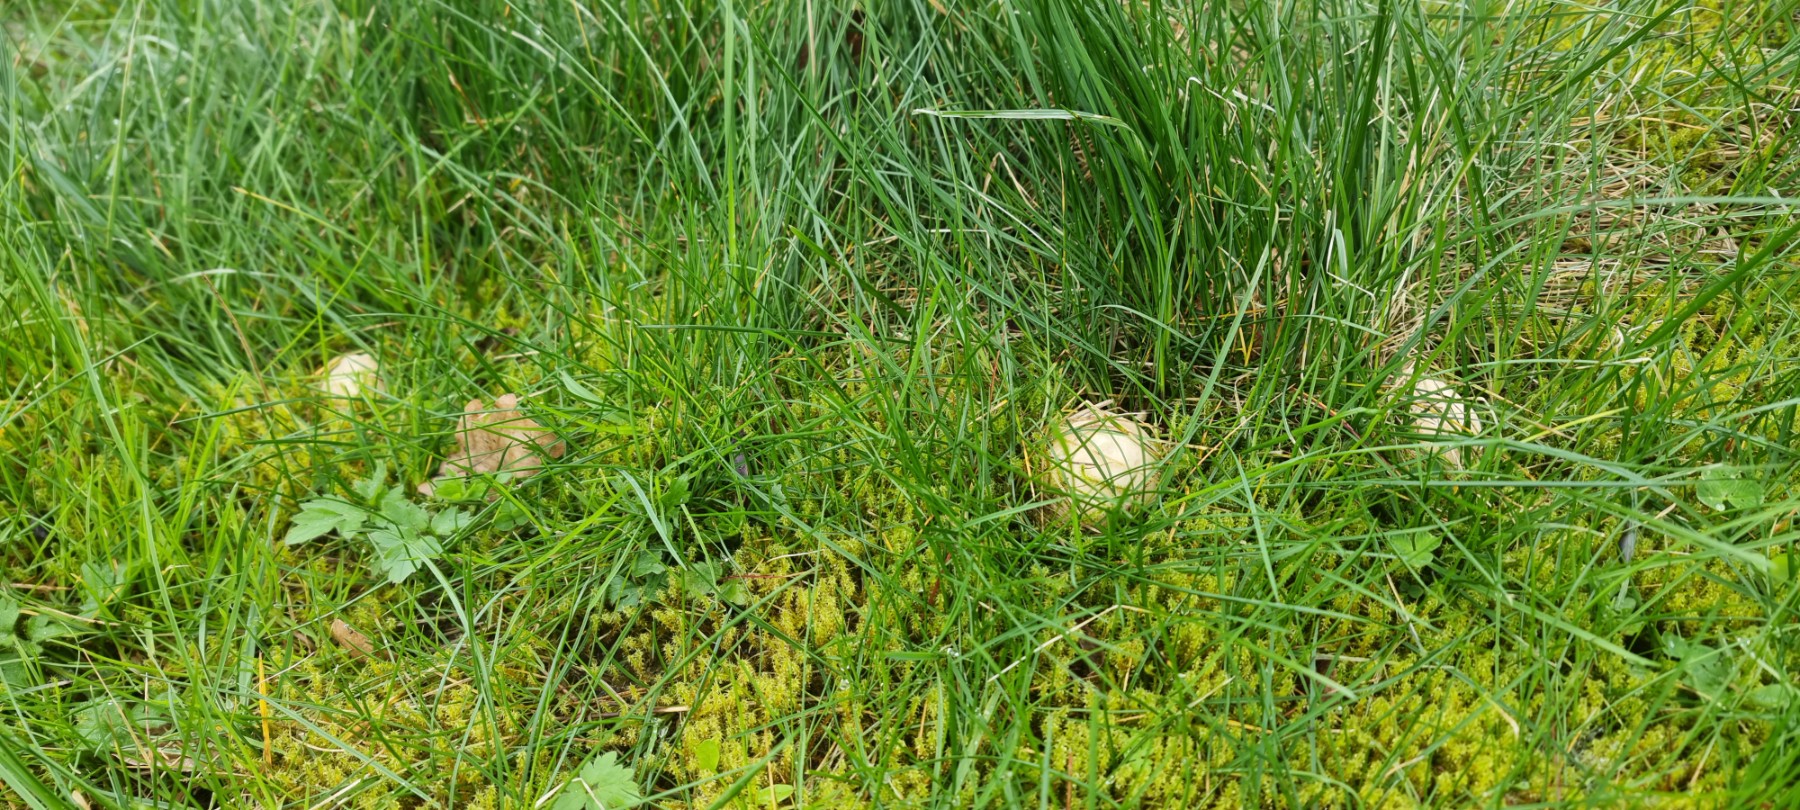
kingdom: Fungi
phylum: Basidiomycota
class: Agaricomycetes
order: Agaricales
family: Lyophyllaceae
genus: Calocybe
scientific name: Calocybe gambosa
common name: vårmusseron
